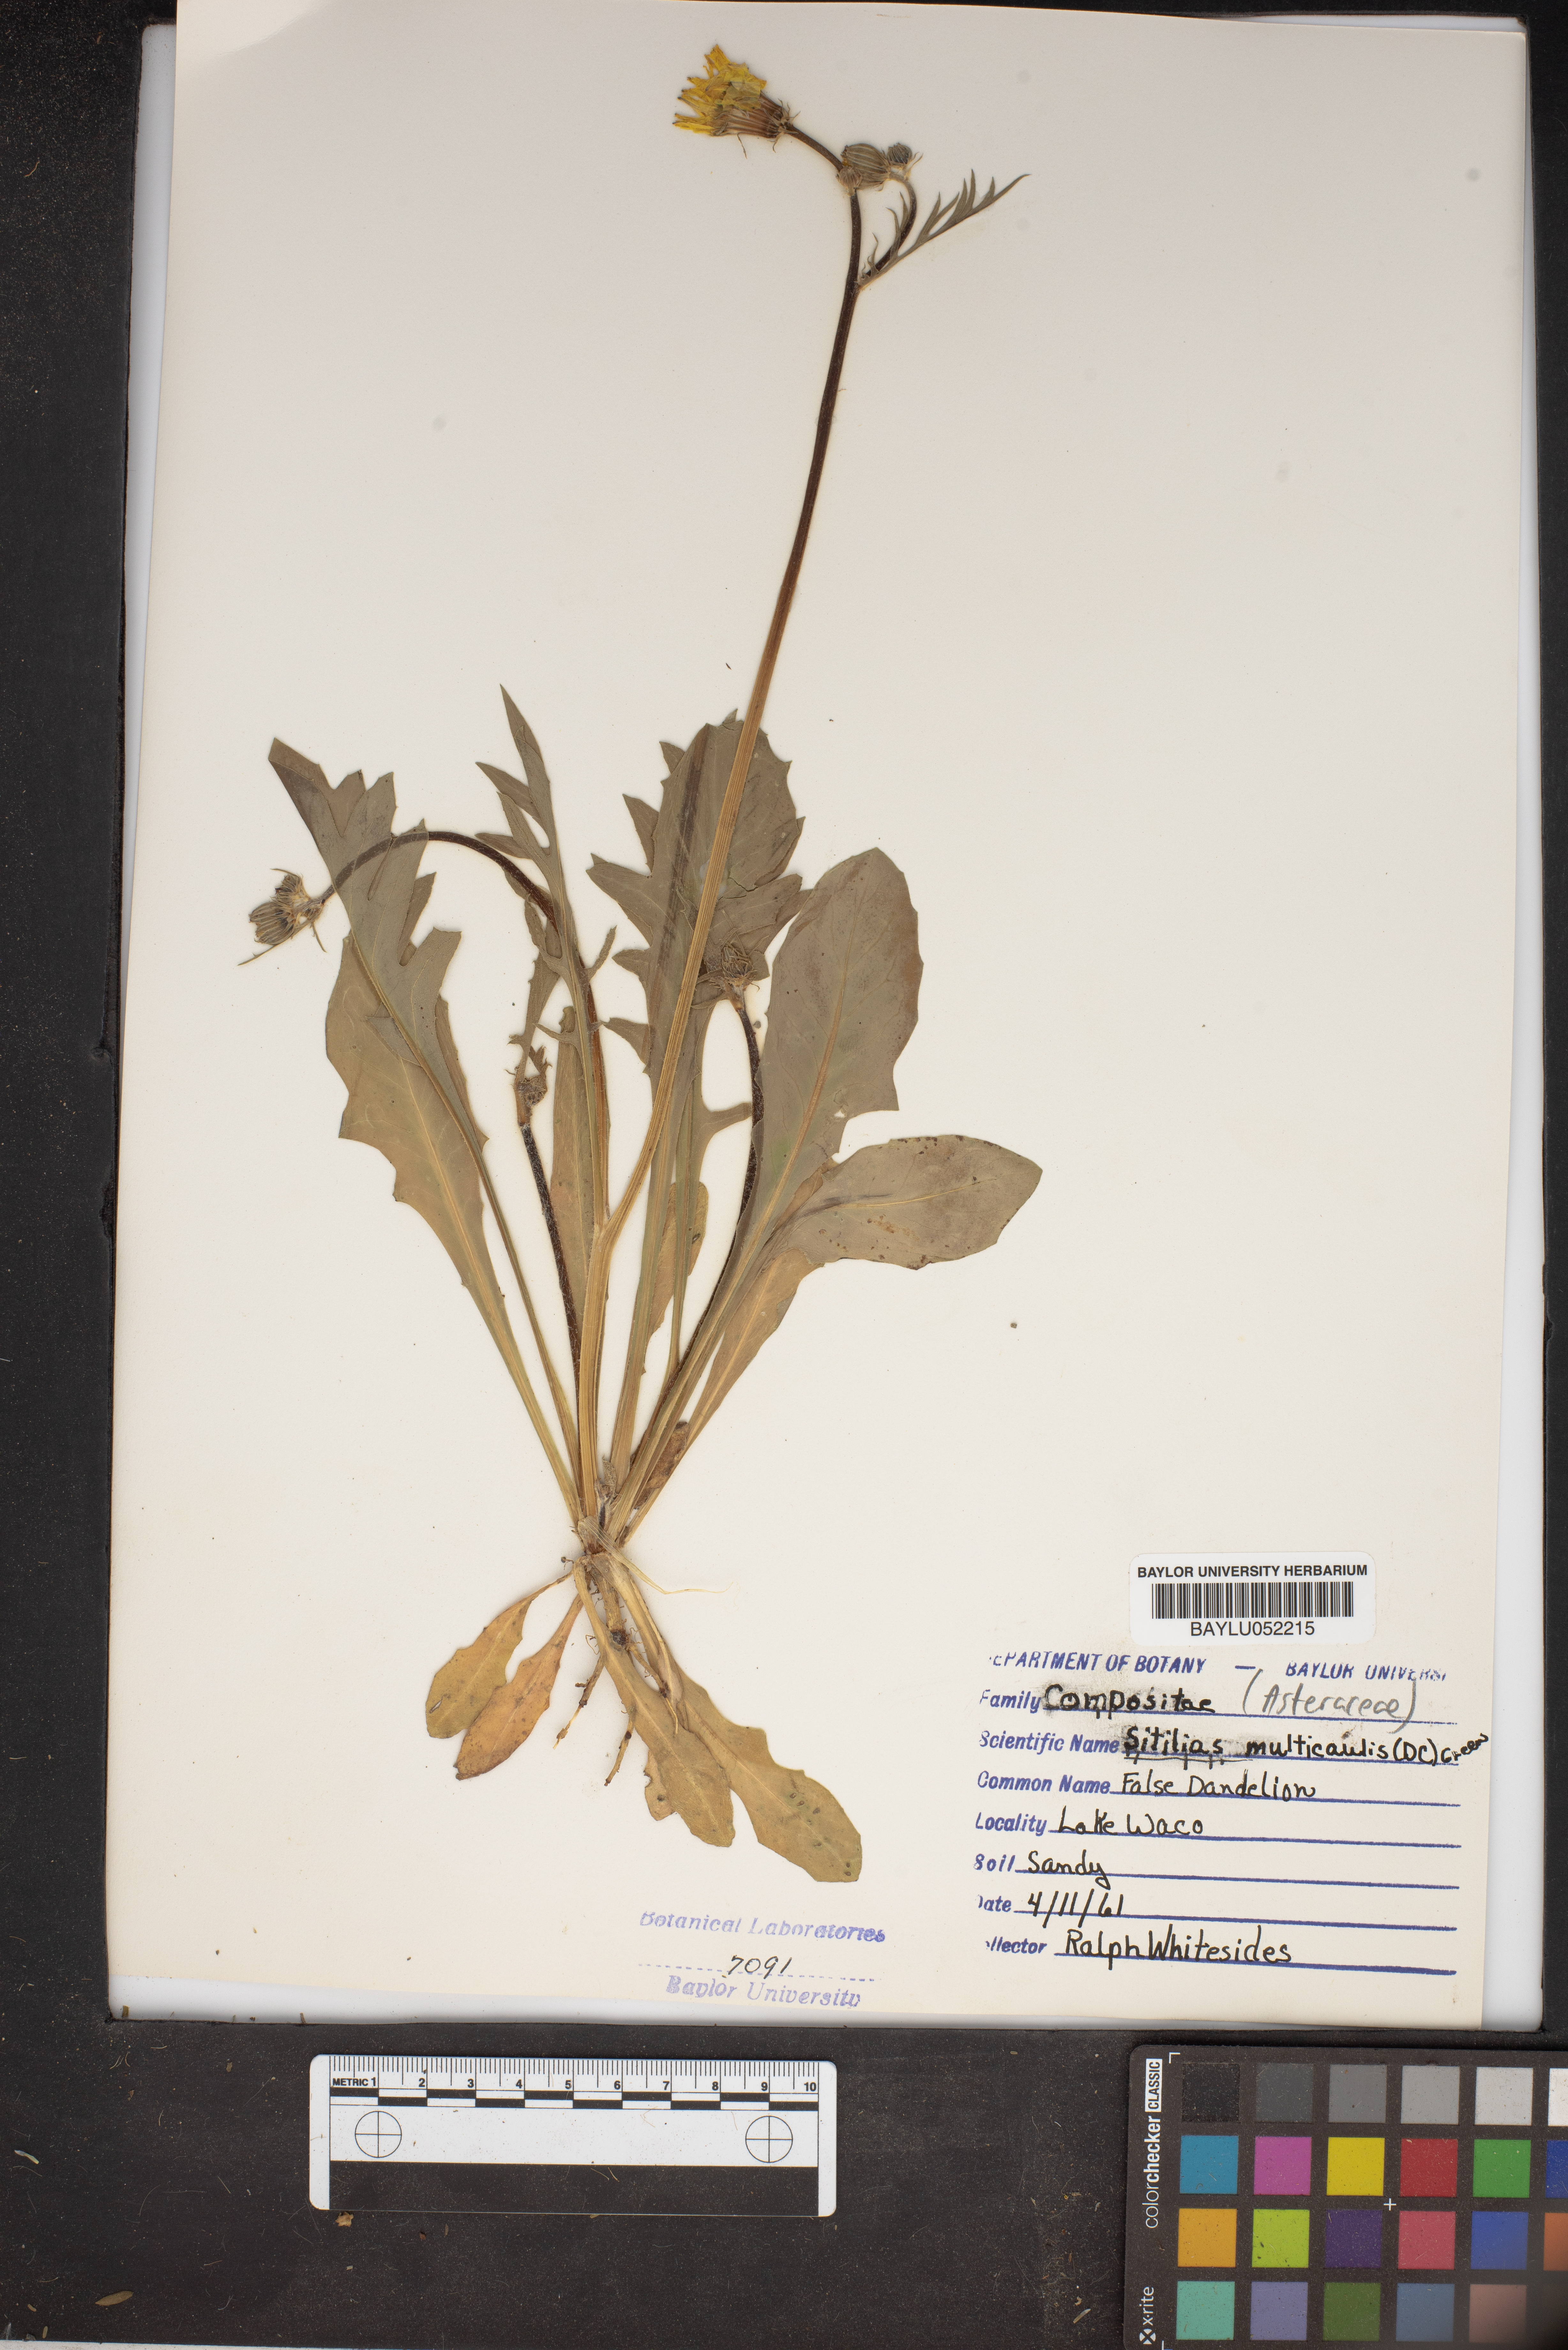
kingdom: Plantae
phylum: Tracheophyta
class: Magnoliopsida
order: Asterales
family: Asteraceae
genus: Pyrrhopappus
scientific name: Pyrrhopappus pauciflorus
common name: Texas false dandelion
